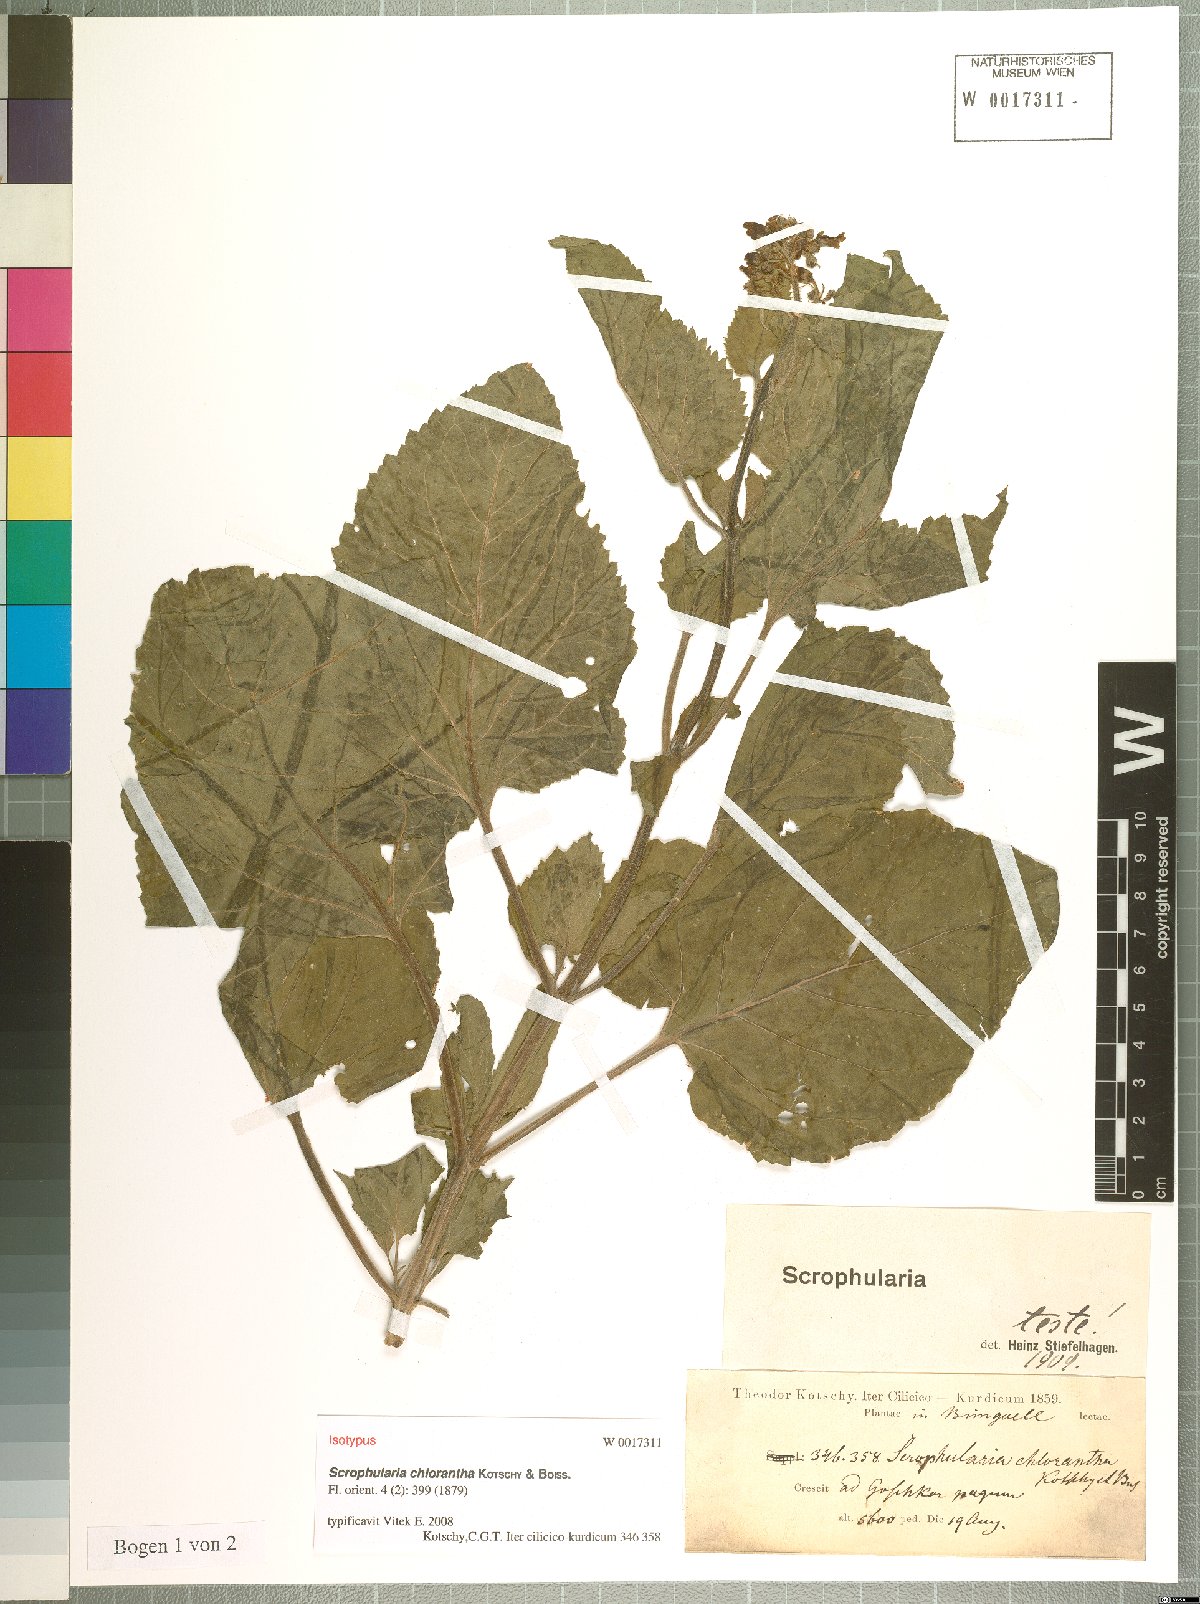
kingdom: Plantae
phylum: Tracheophyta
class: Magnoliopsida
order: Lamiales
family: Scrophulariaceae
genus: Scrophularia
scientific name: Scrophularia chlorantha
